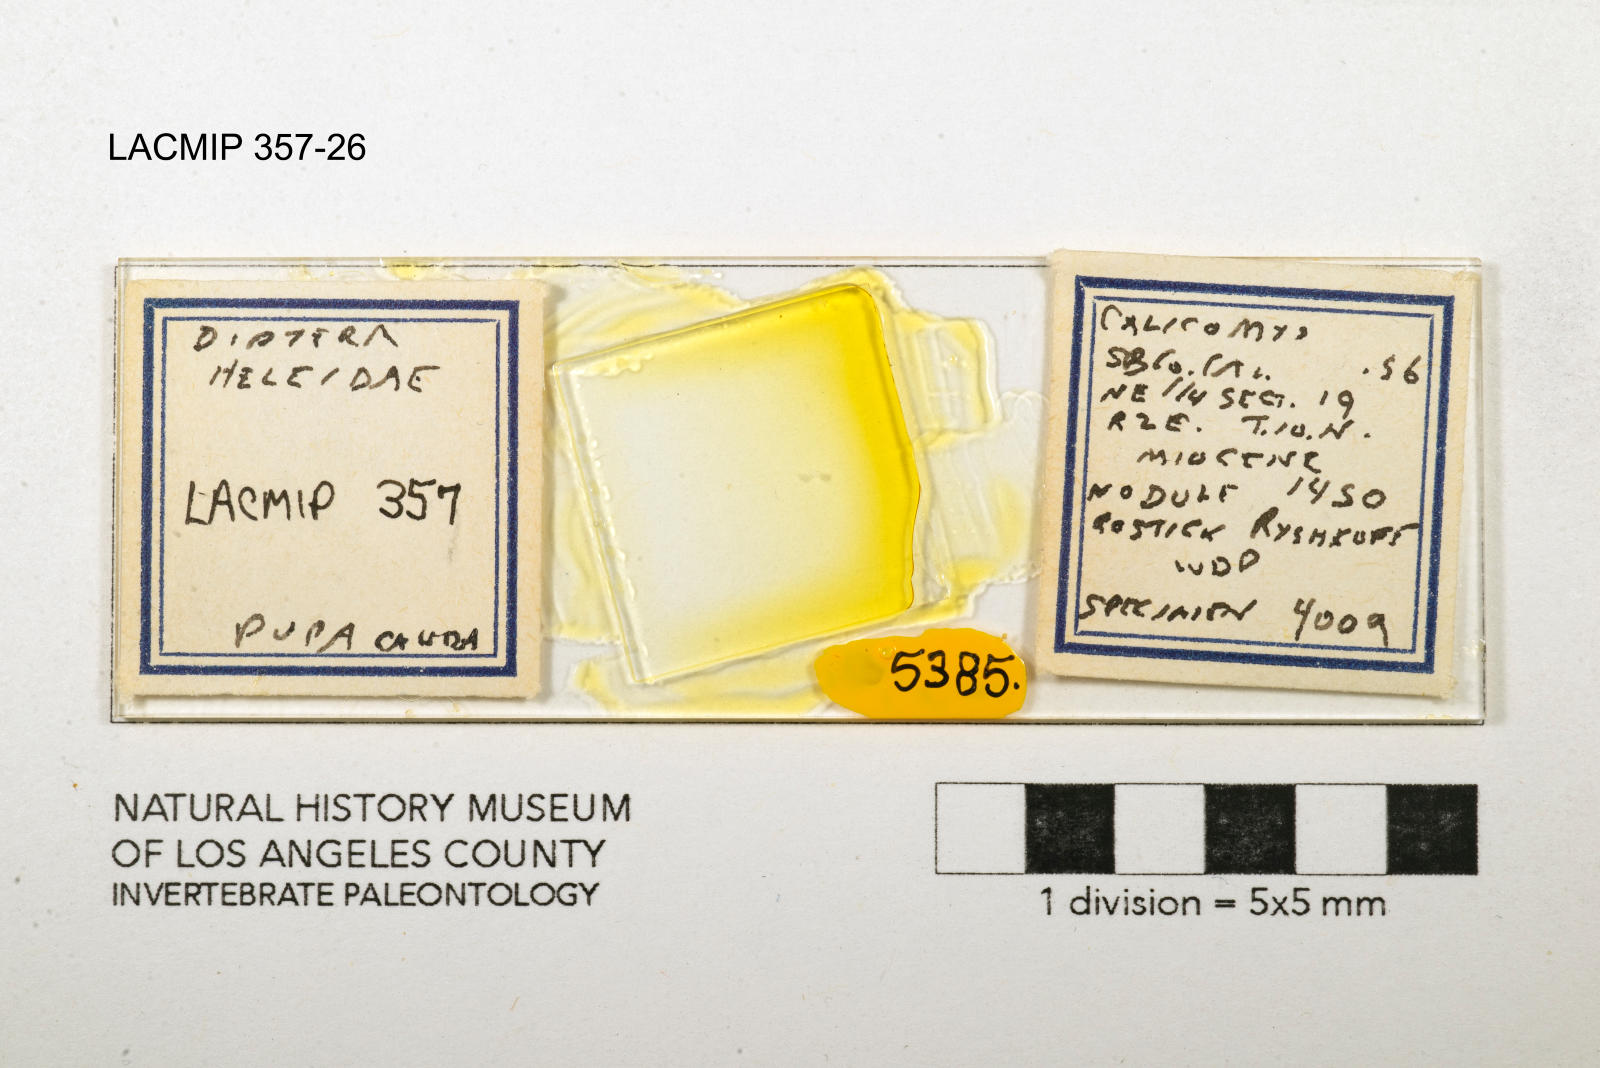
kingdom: Animalia
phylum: Arthropoda
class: Insecta
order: Diptera
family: Ceratopogonidae
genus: Dasyhelea
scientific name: Dasyhelea kanakoffi
